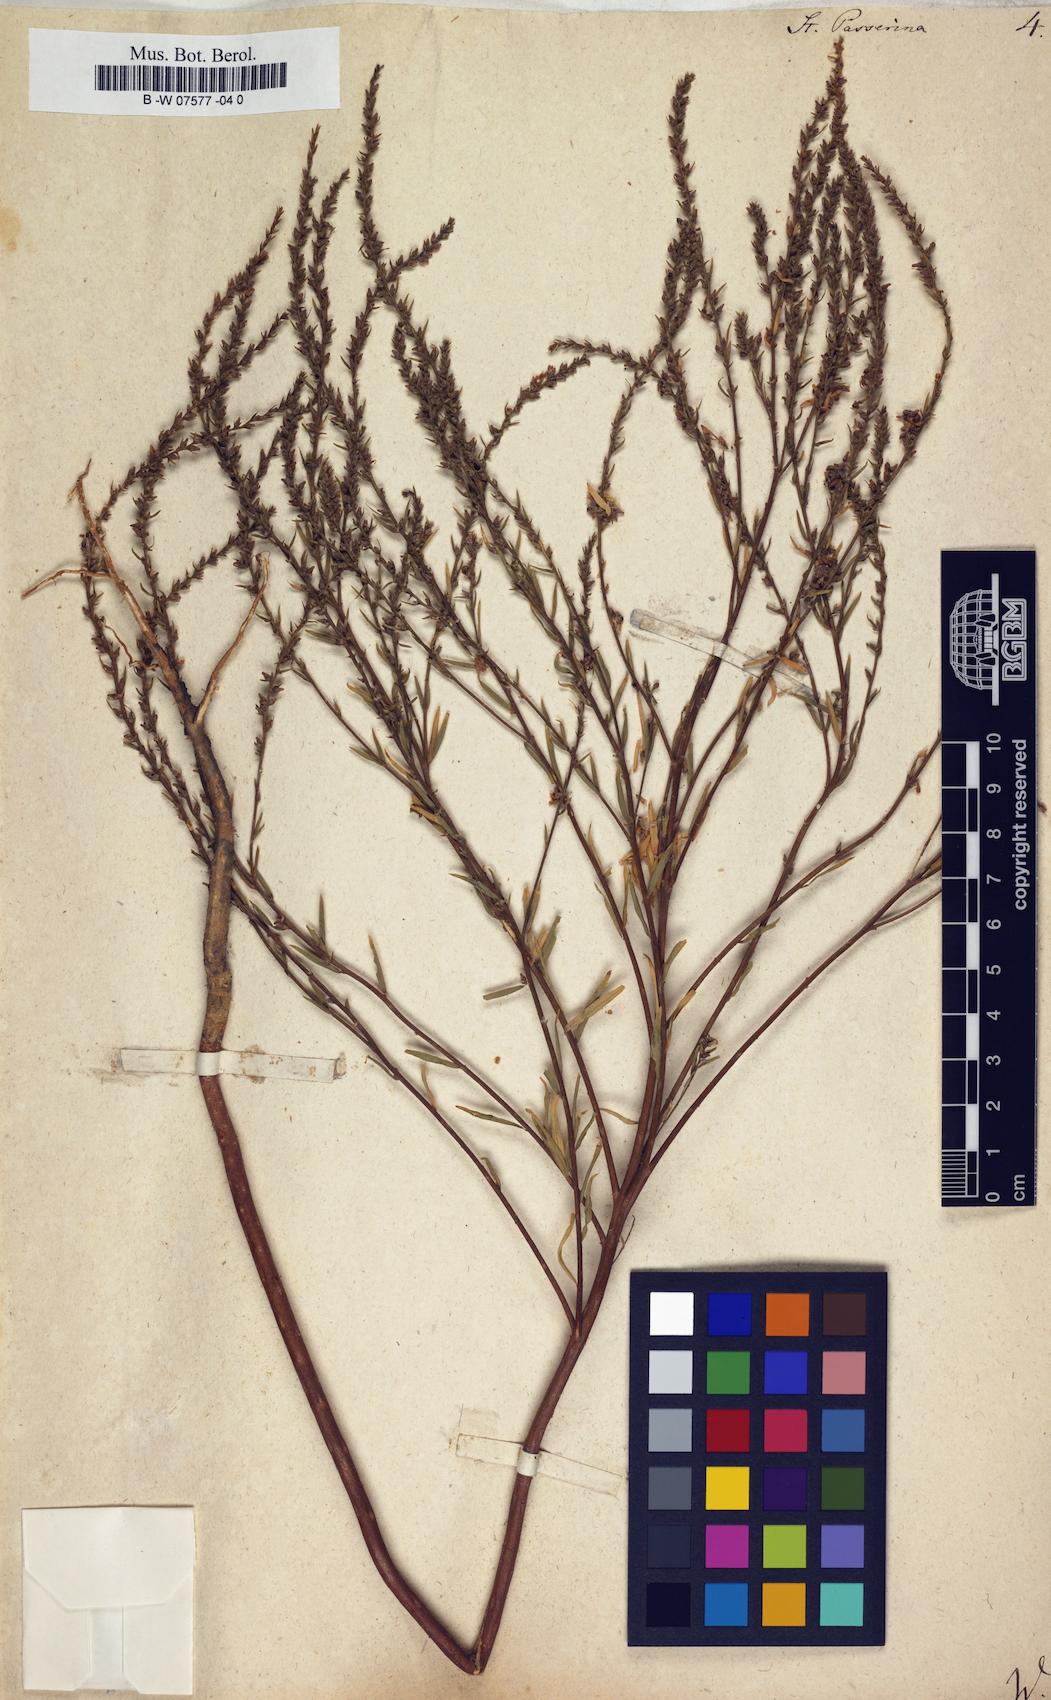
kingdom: Plantae
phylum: Tracheophyta
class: Magnoliopsida
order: Malvales
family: Thymelaeaceae
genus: Thymelaea
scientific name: Thymelaea passerina
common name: Annual thymelaea
